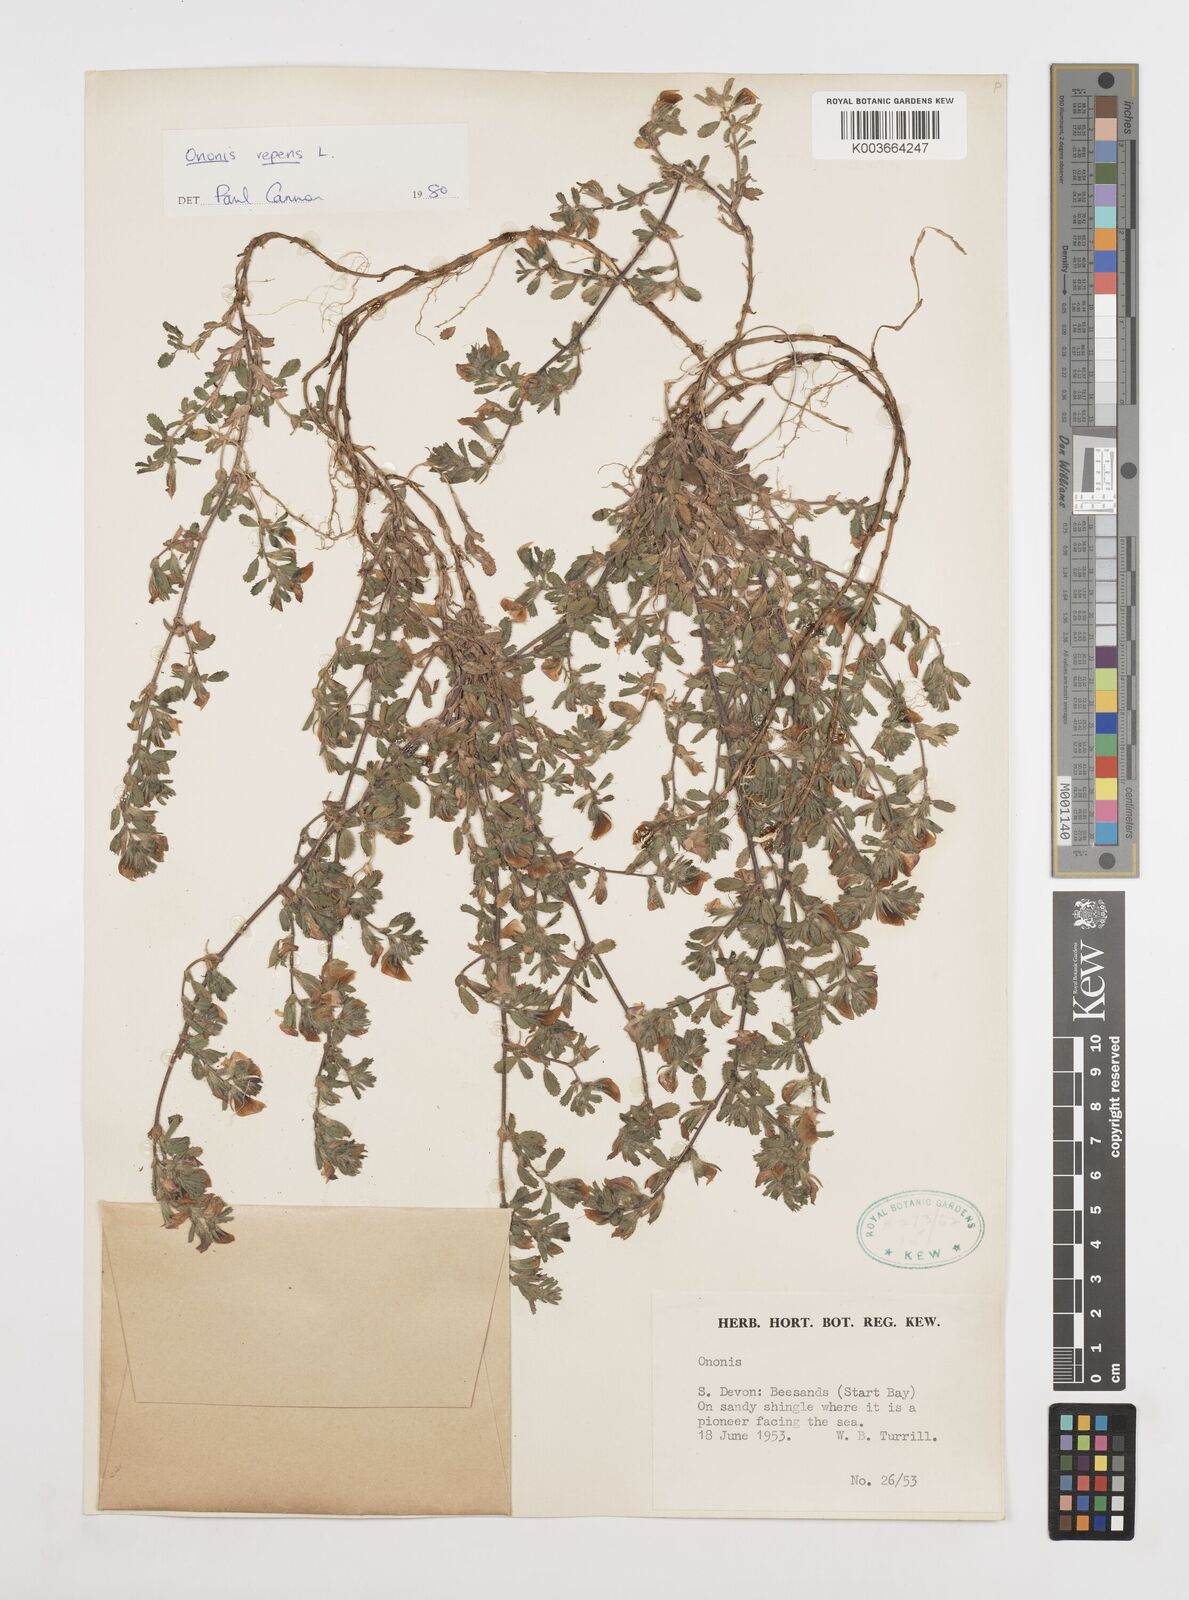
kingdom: Plantae
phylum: Tracheophyta
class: Magnoliopsida
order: Fabales
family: Fabaceae
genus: Ononis
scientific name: Ononis spinosa
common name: Spiny restharrow
